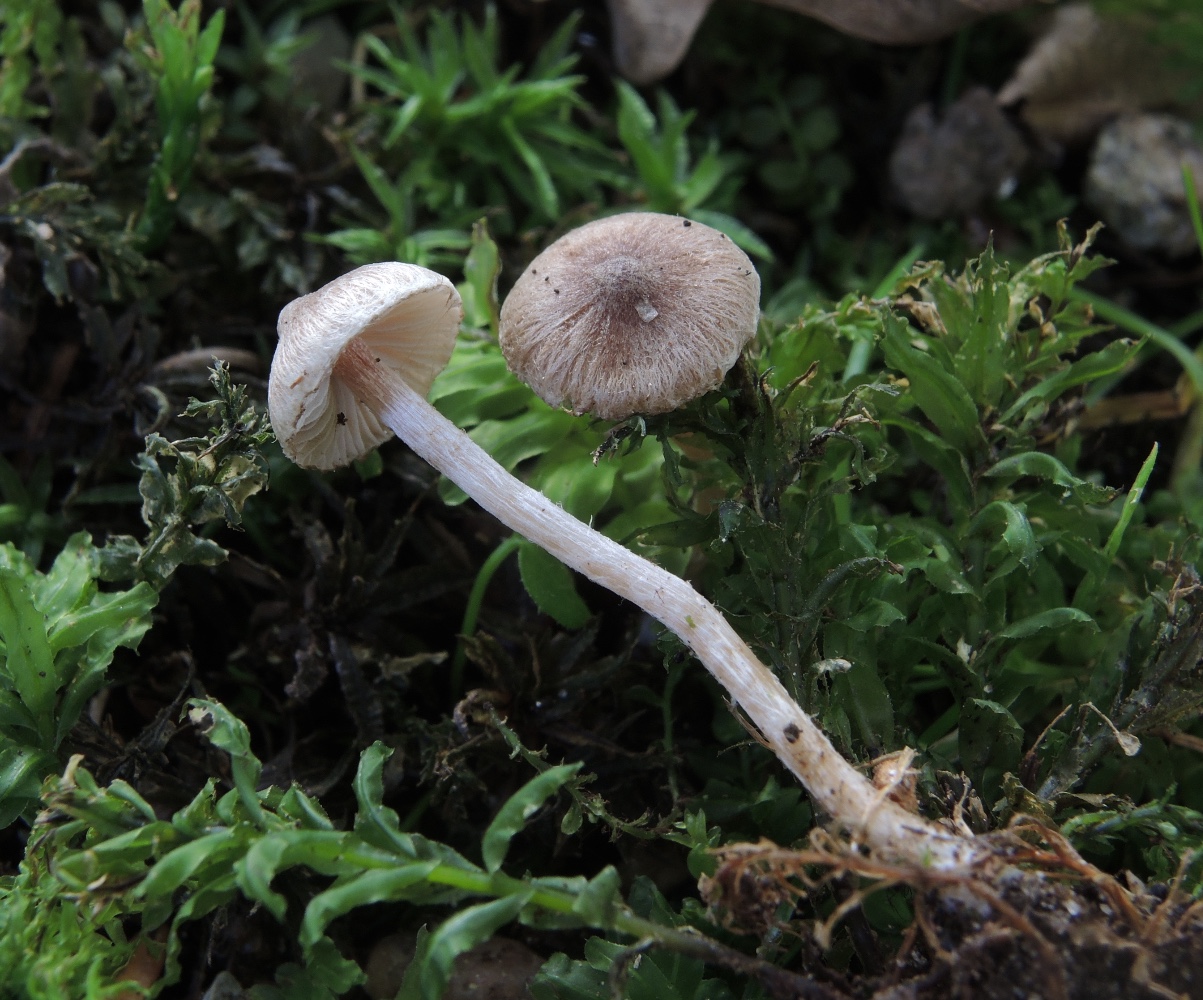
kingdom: Fungi
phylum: Basidiomycota
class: Agaricomycetes
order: Agaricales
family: Inocybaceae
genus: Inocybe
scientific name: Inocybe
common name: trævlhat
